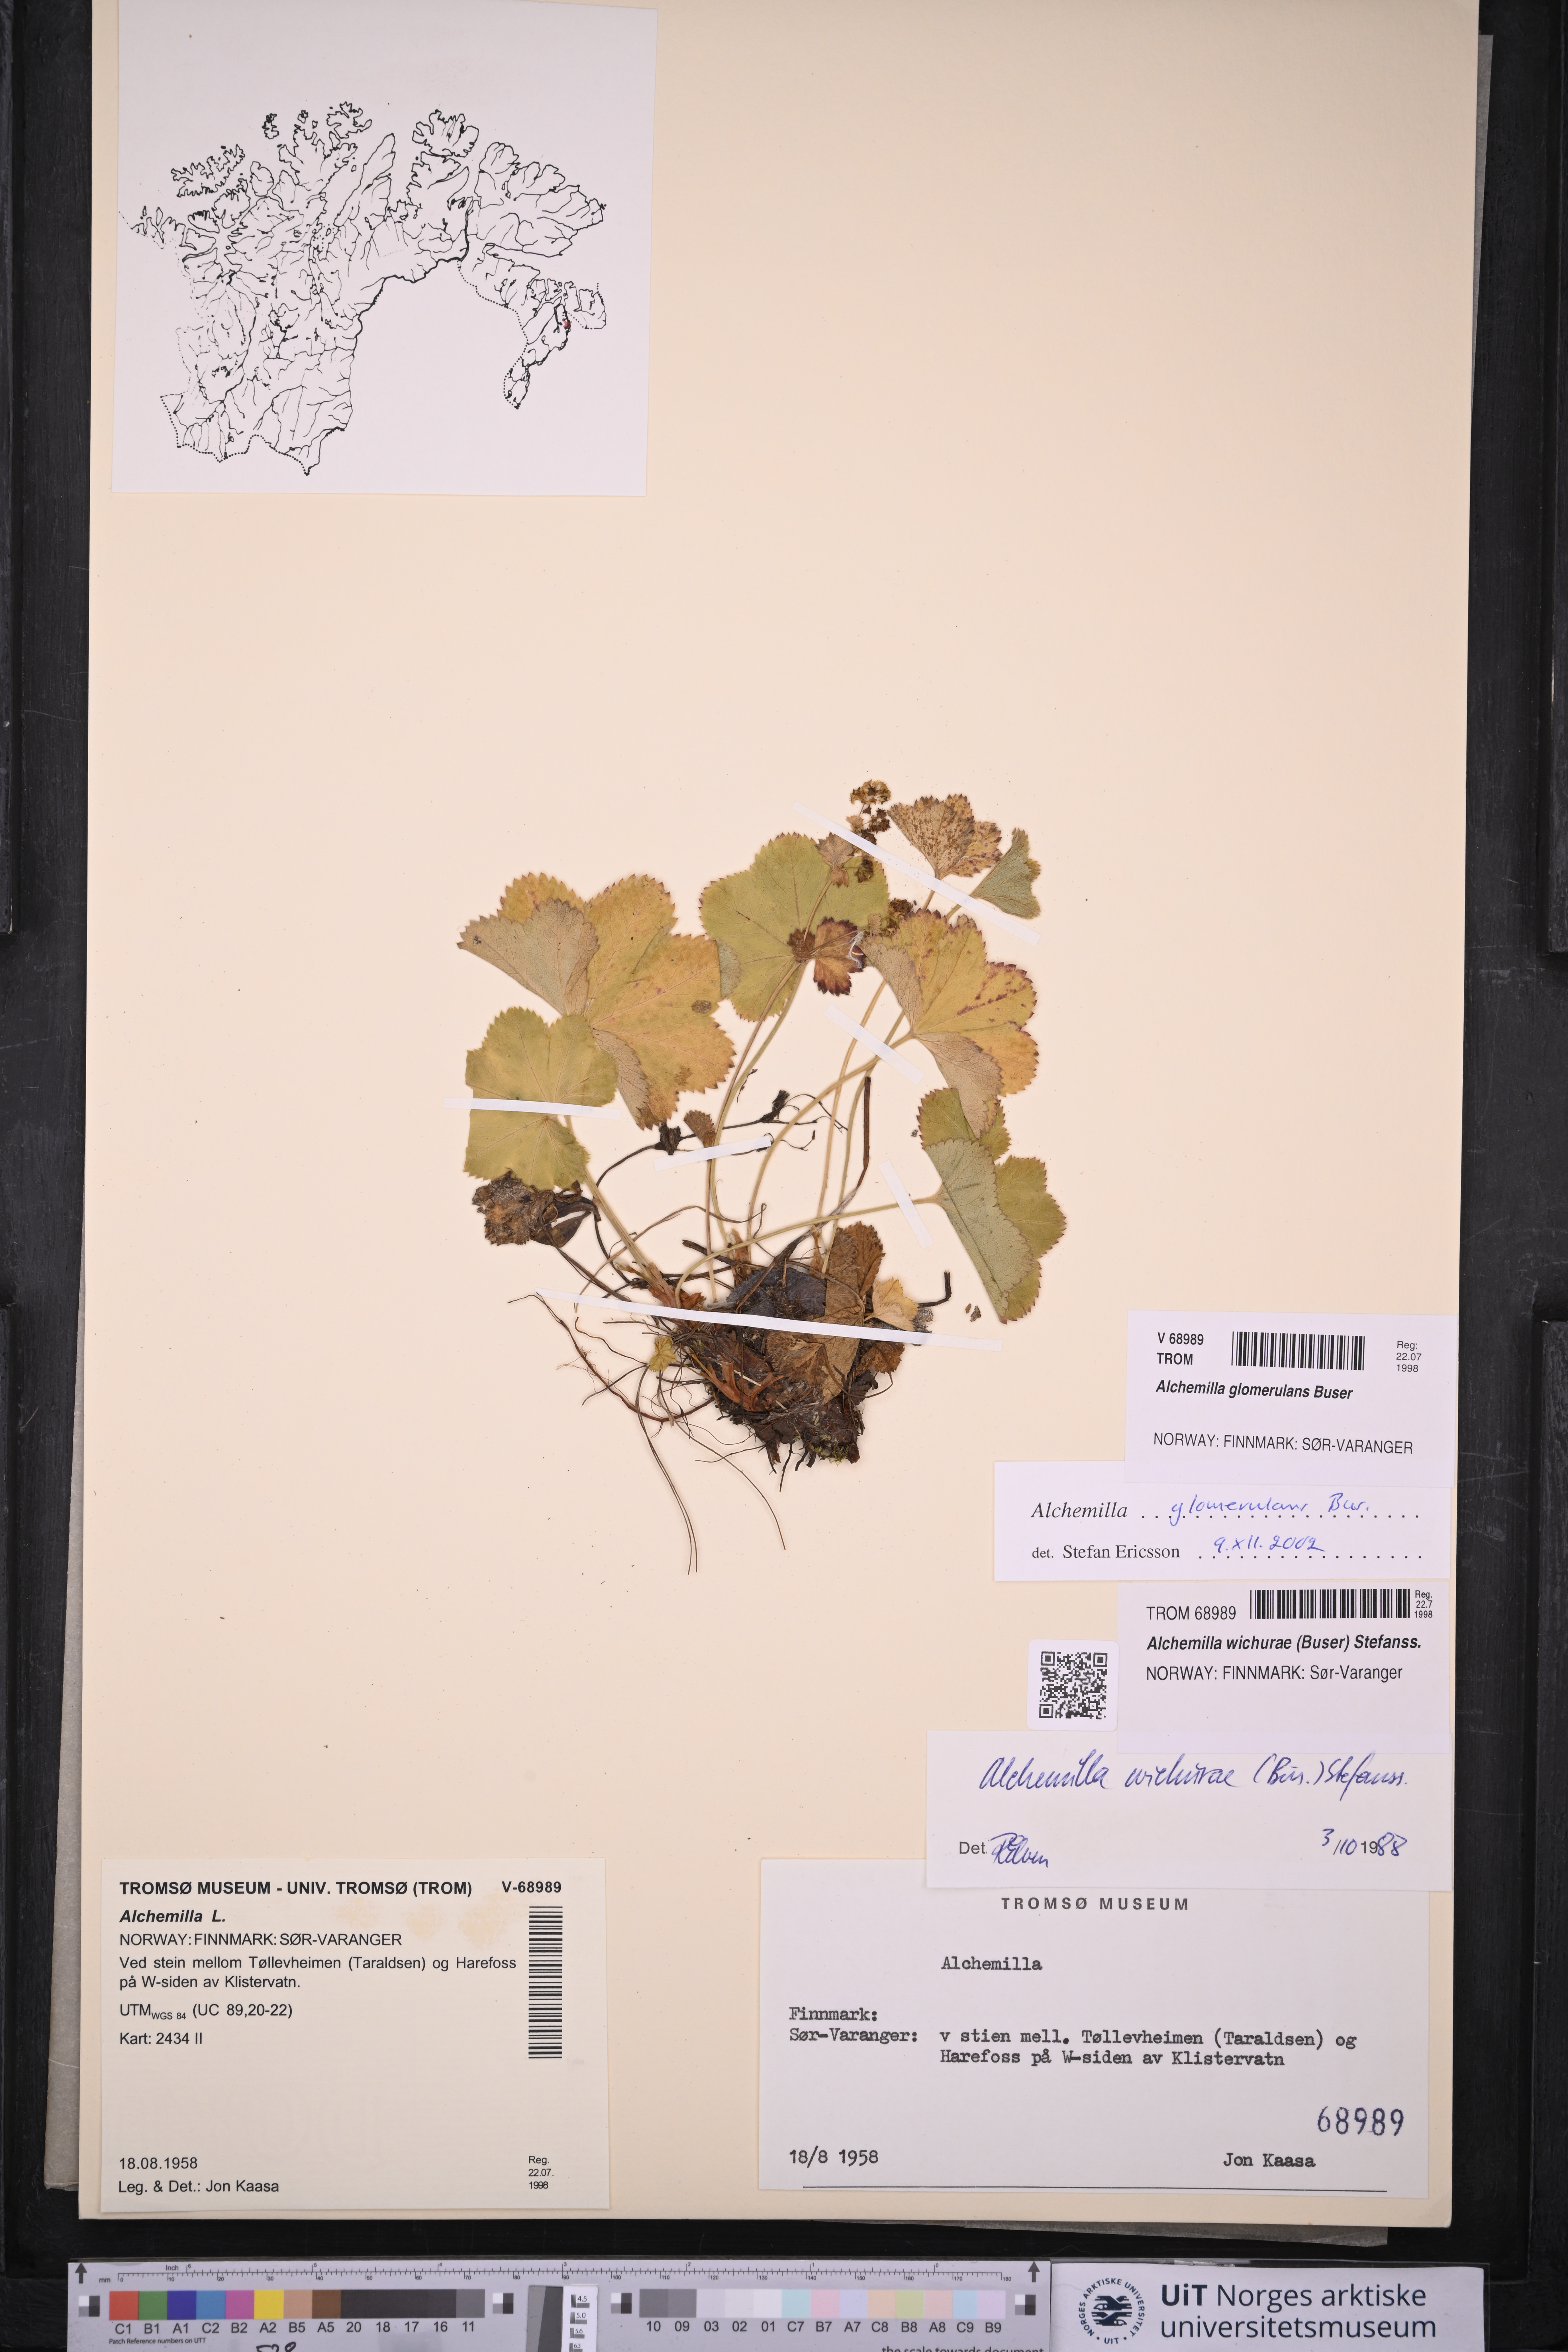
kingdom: Plantae
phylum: Tracheophyta
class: Magnoliopsida
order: Rosales
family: Rosaceae
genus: Alchemilla
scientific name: Alchemilla glomerulans
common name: Clustered lady's mantle
